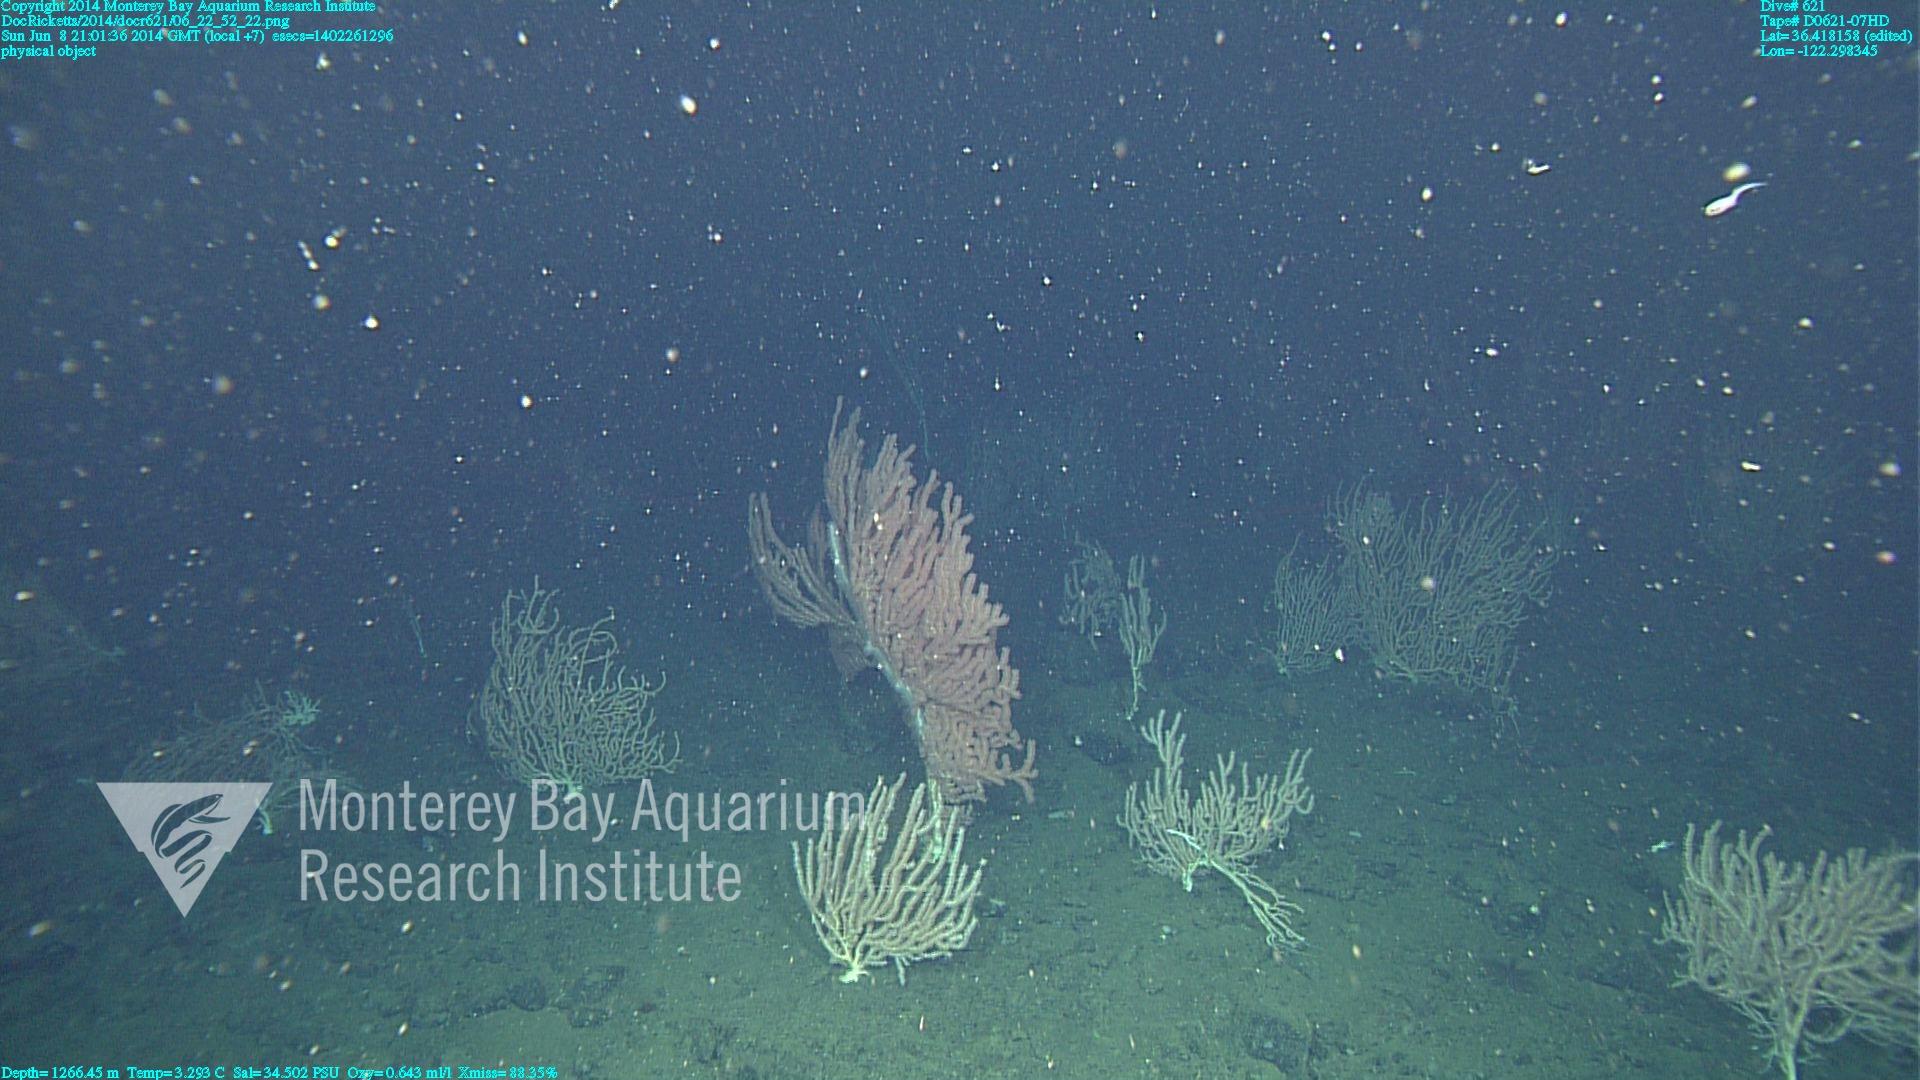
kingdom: Animalia
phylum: Cnidaria
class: Anthozoa
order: Scleralcyonacea
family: Keratoisididae
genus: Keratoisis
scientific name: Keratoisis
